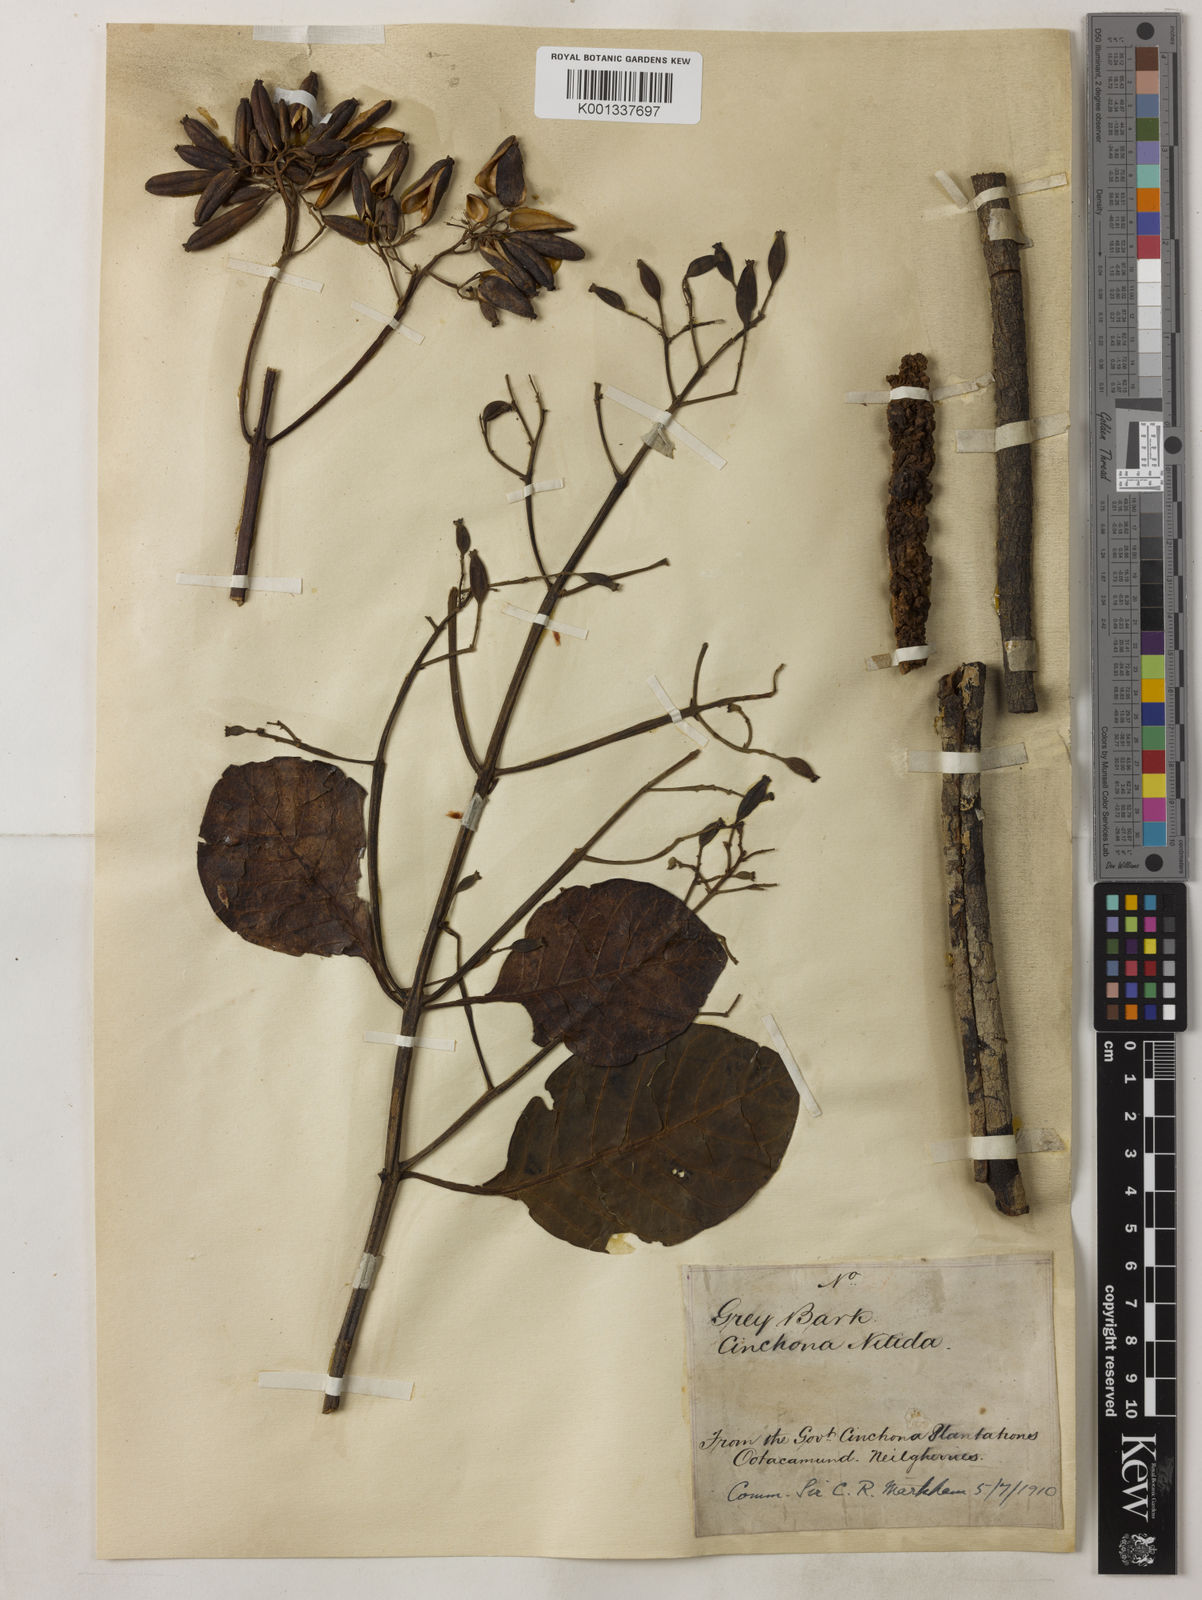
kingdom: Plantae
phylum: Tracheophyta
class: Magnoliopsida
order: Gentianales
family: Rubiaceae
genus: Cinchona
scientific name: Cinchona nitida
